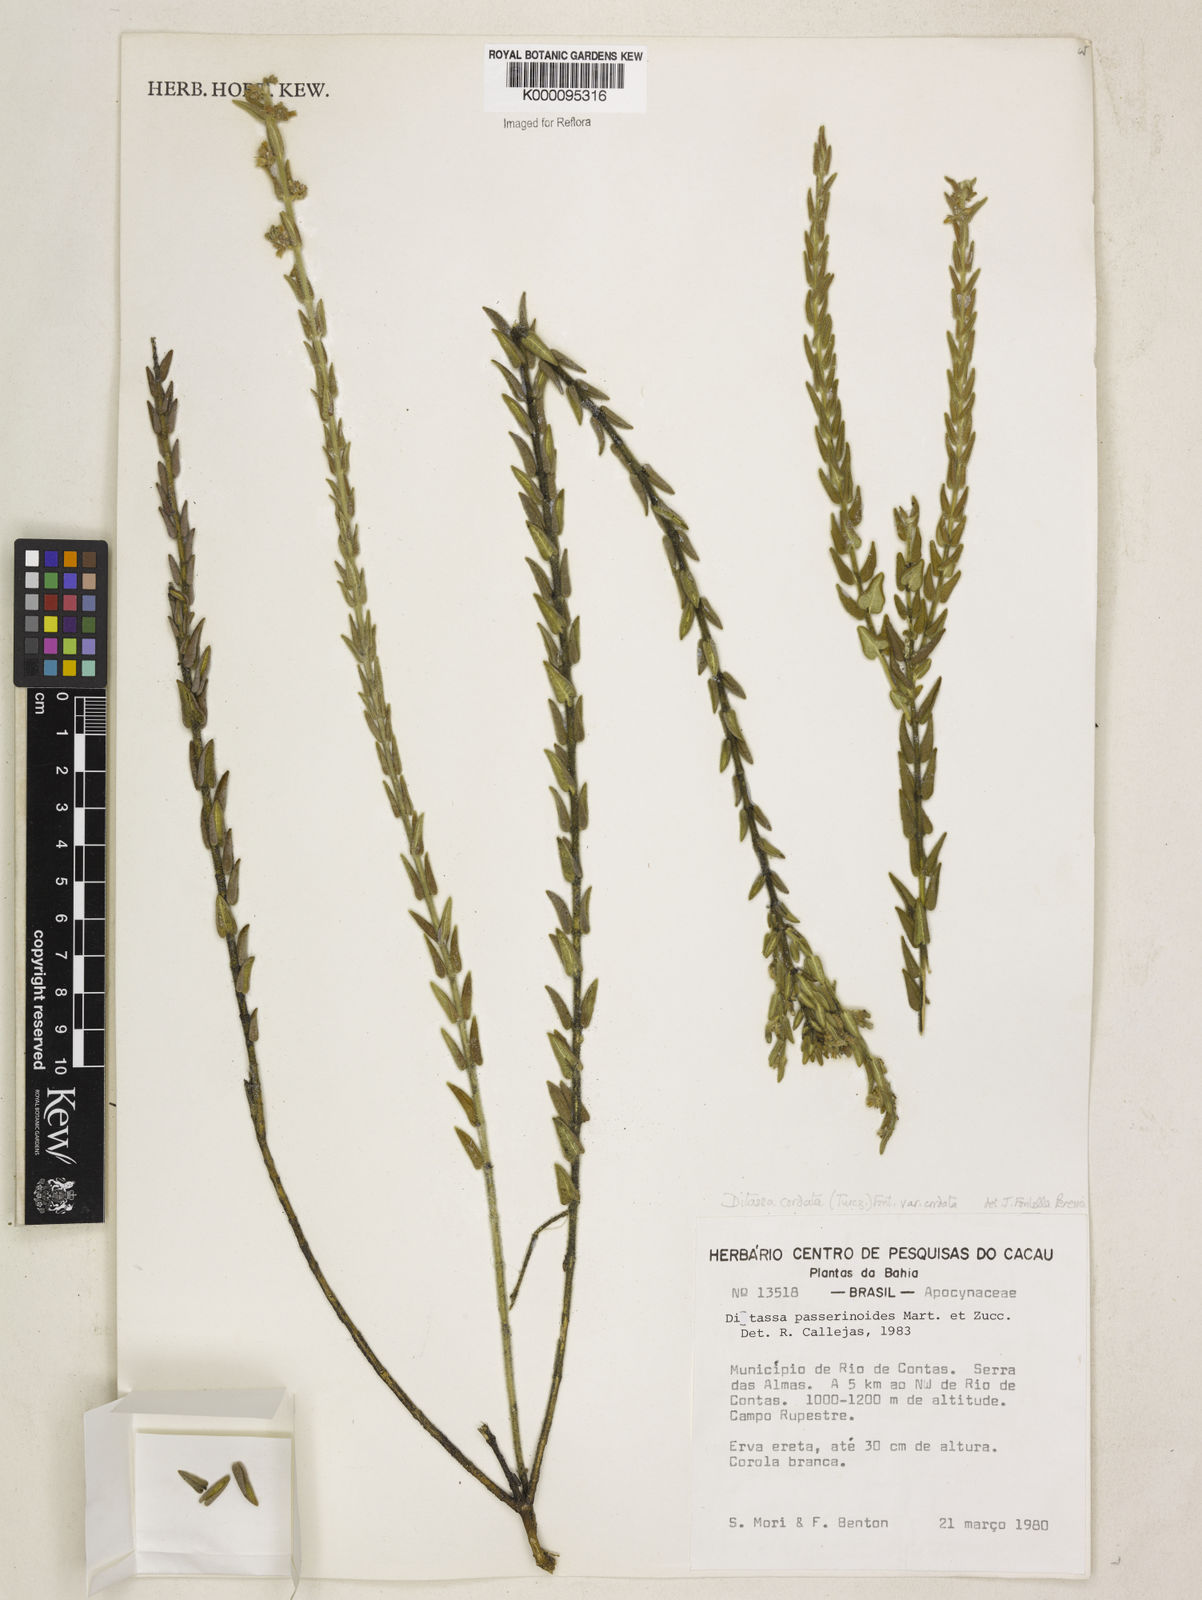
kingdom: Plantae
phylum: Tracheophyta
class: Magnoliopsida
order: Gentianales
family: Apocynaceae
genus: Minaria
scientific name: Minaria cordata
